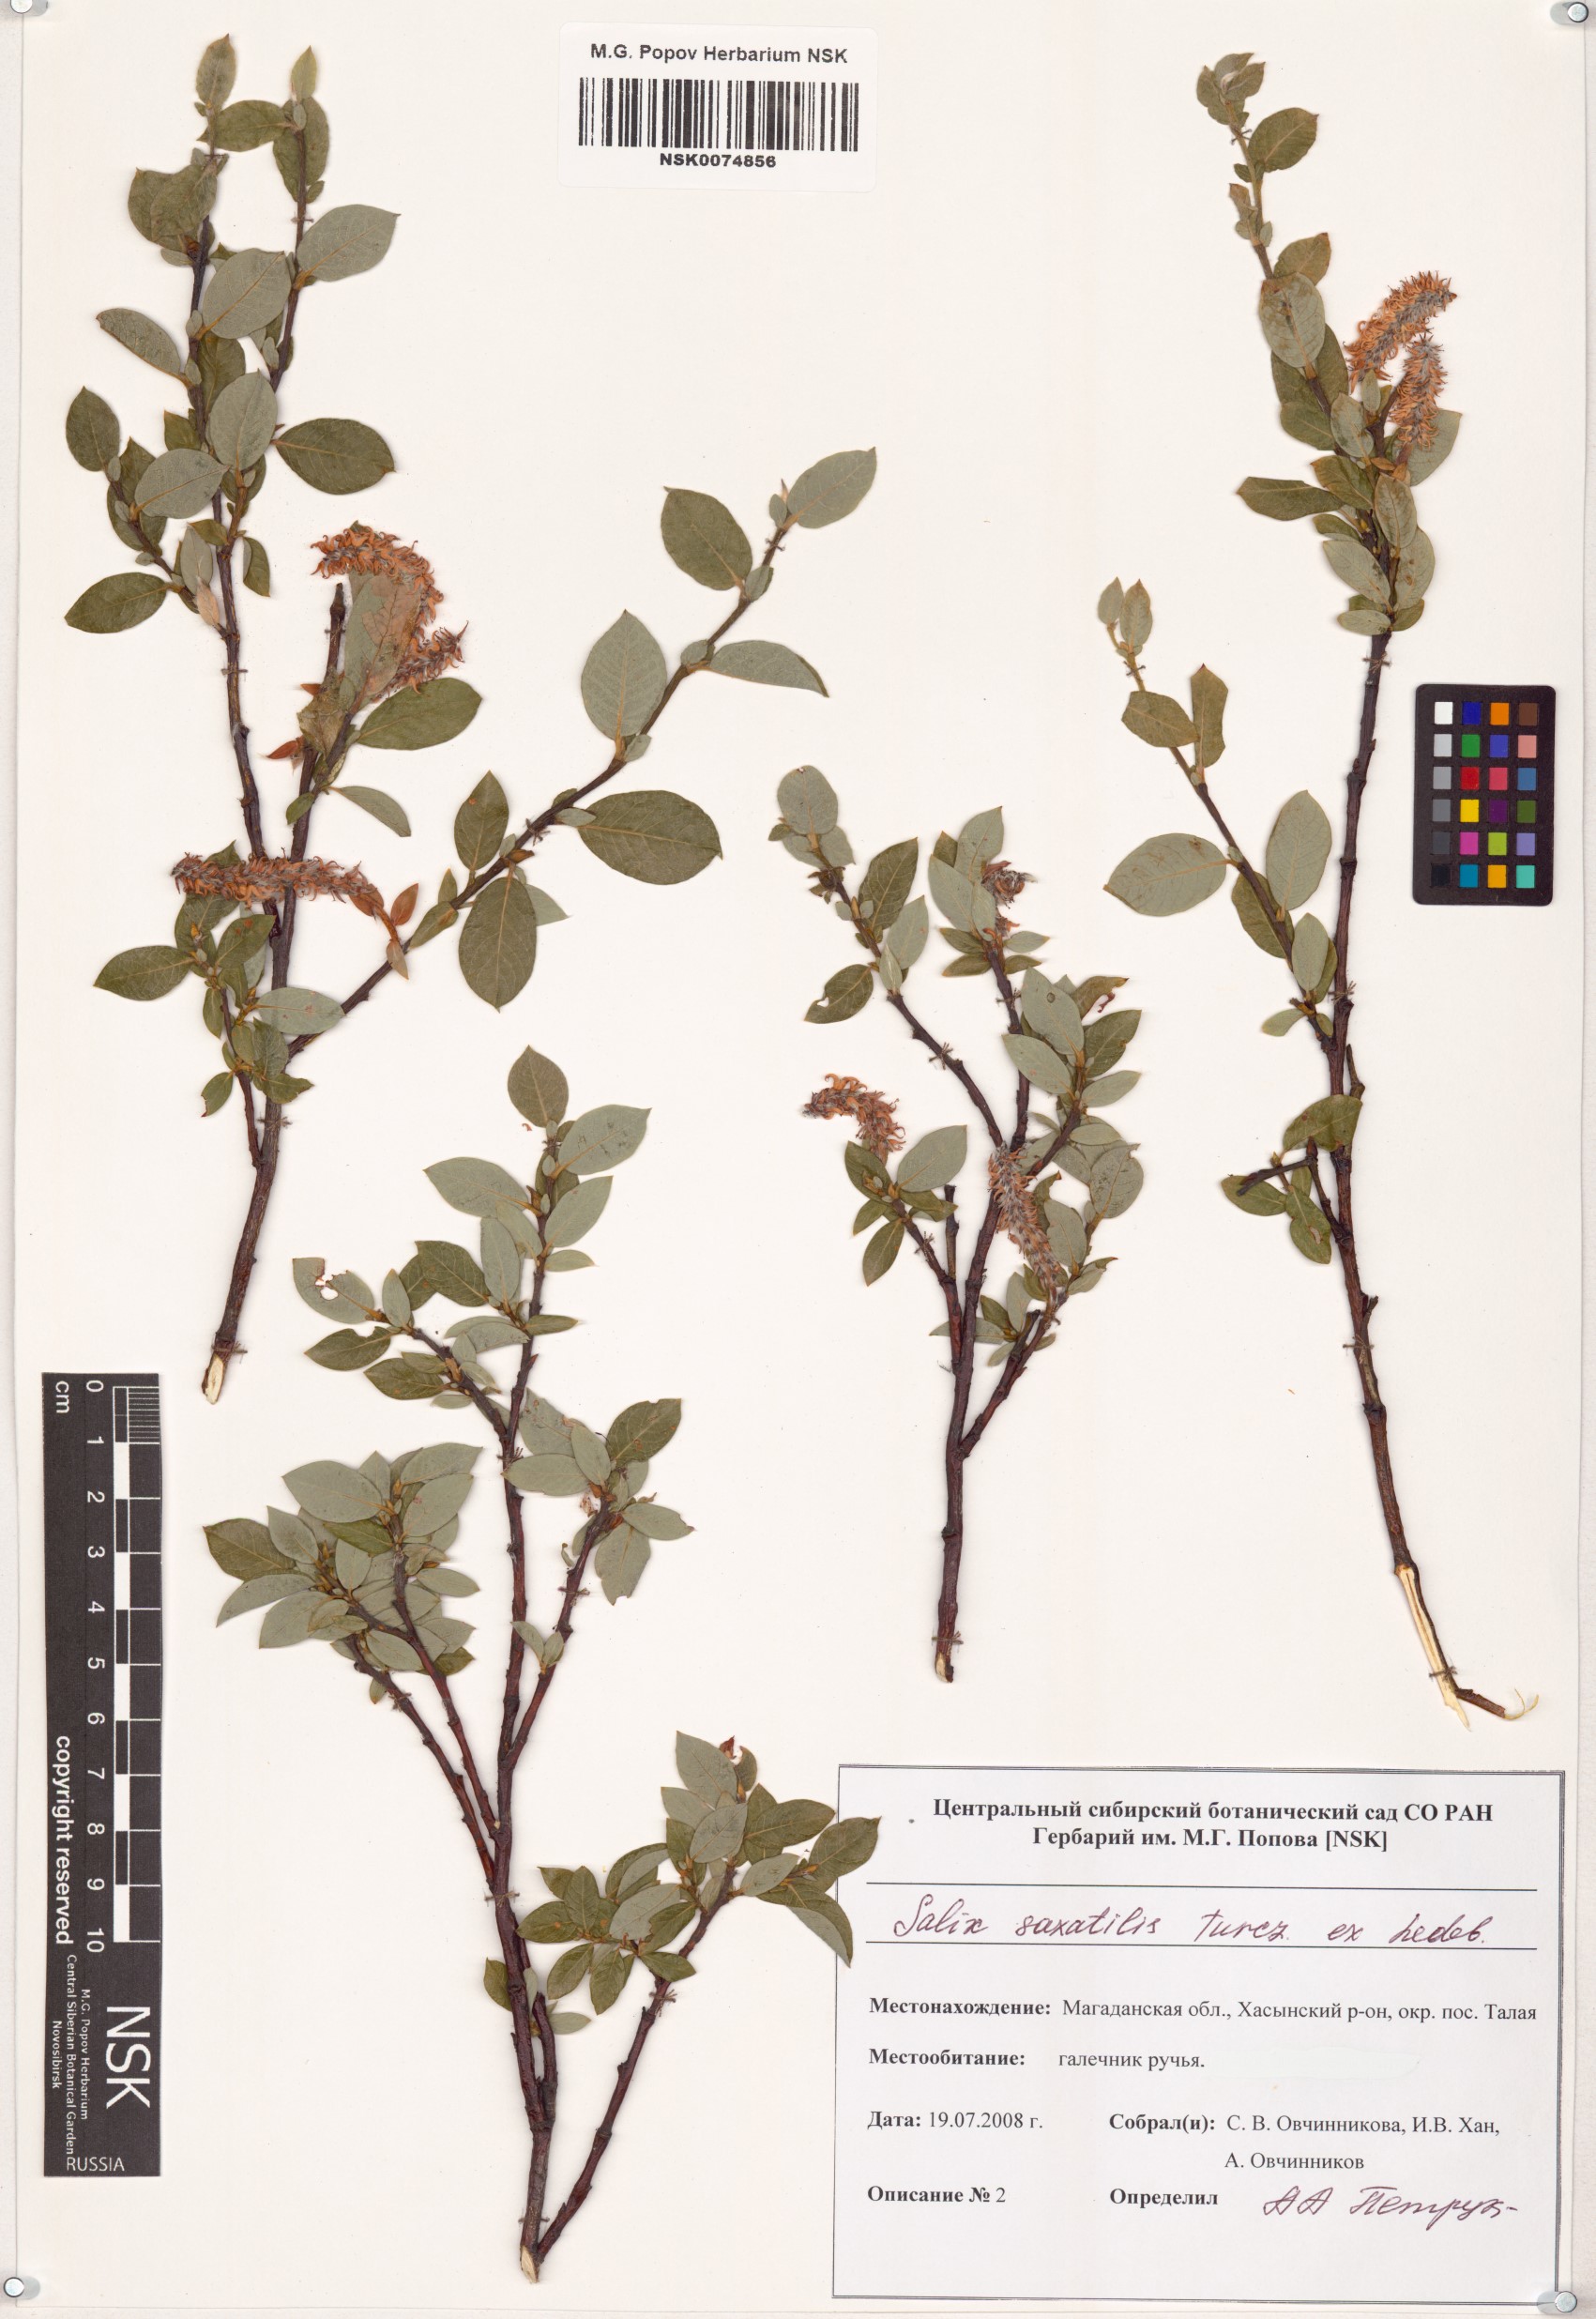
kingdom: Plantae
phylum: Tracheophyta
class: Magnoliopsida
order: Malpighiales
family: Salicaceae
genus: Salix
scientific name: Salix saxatilis
